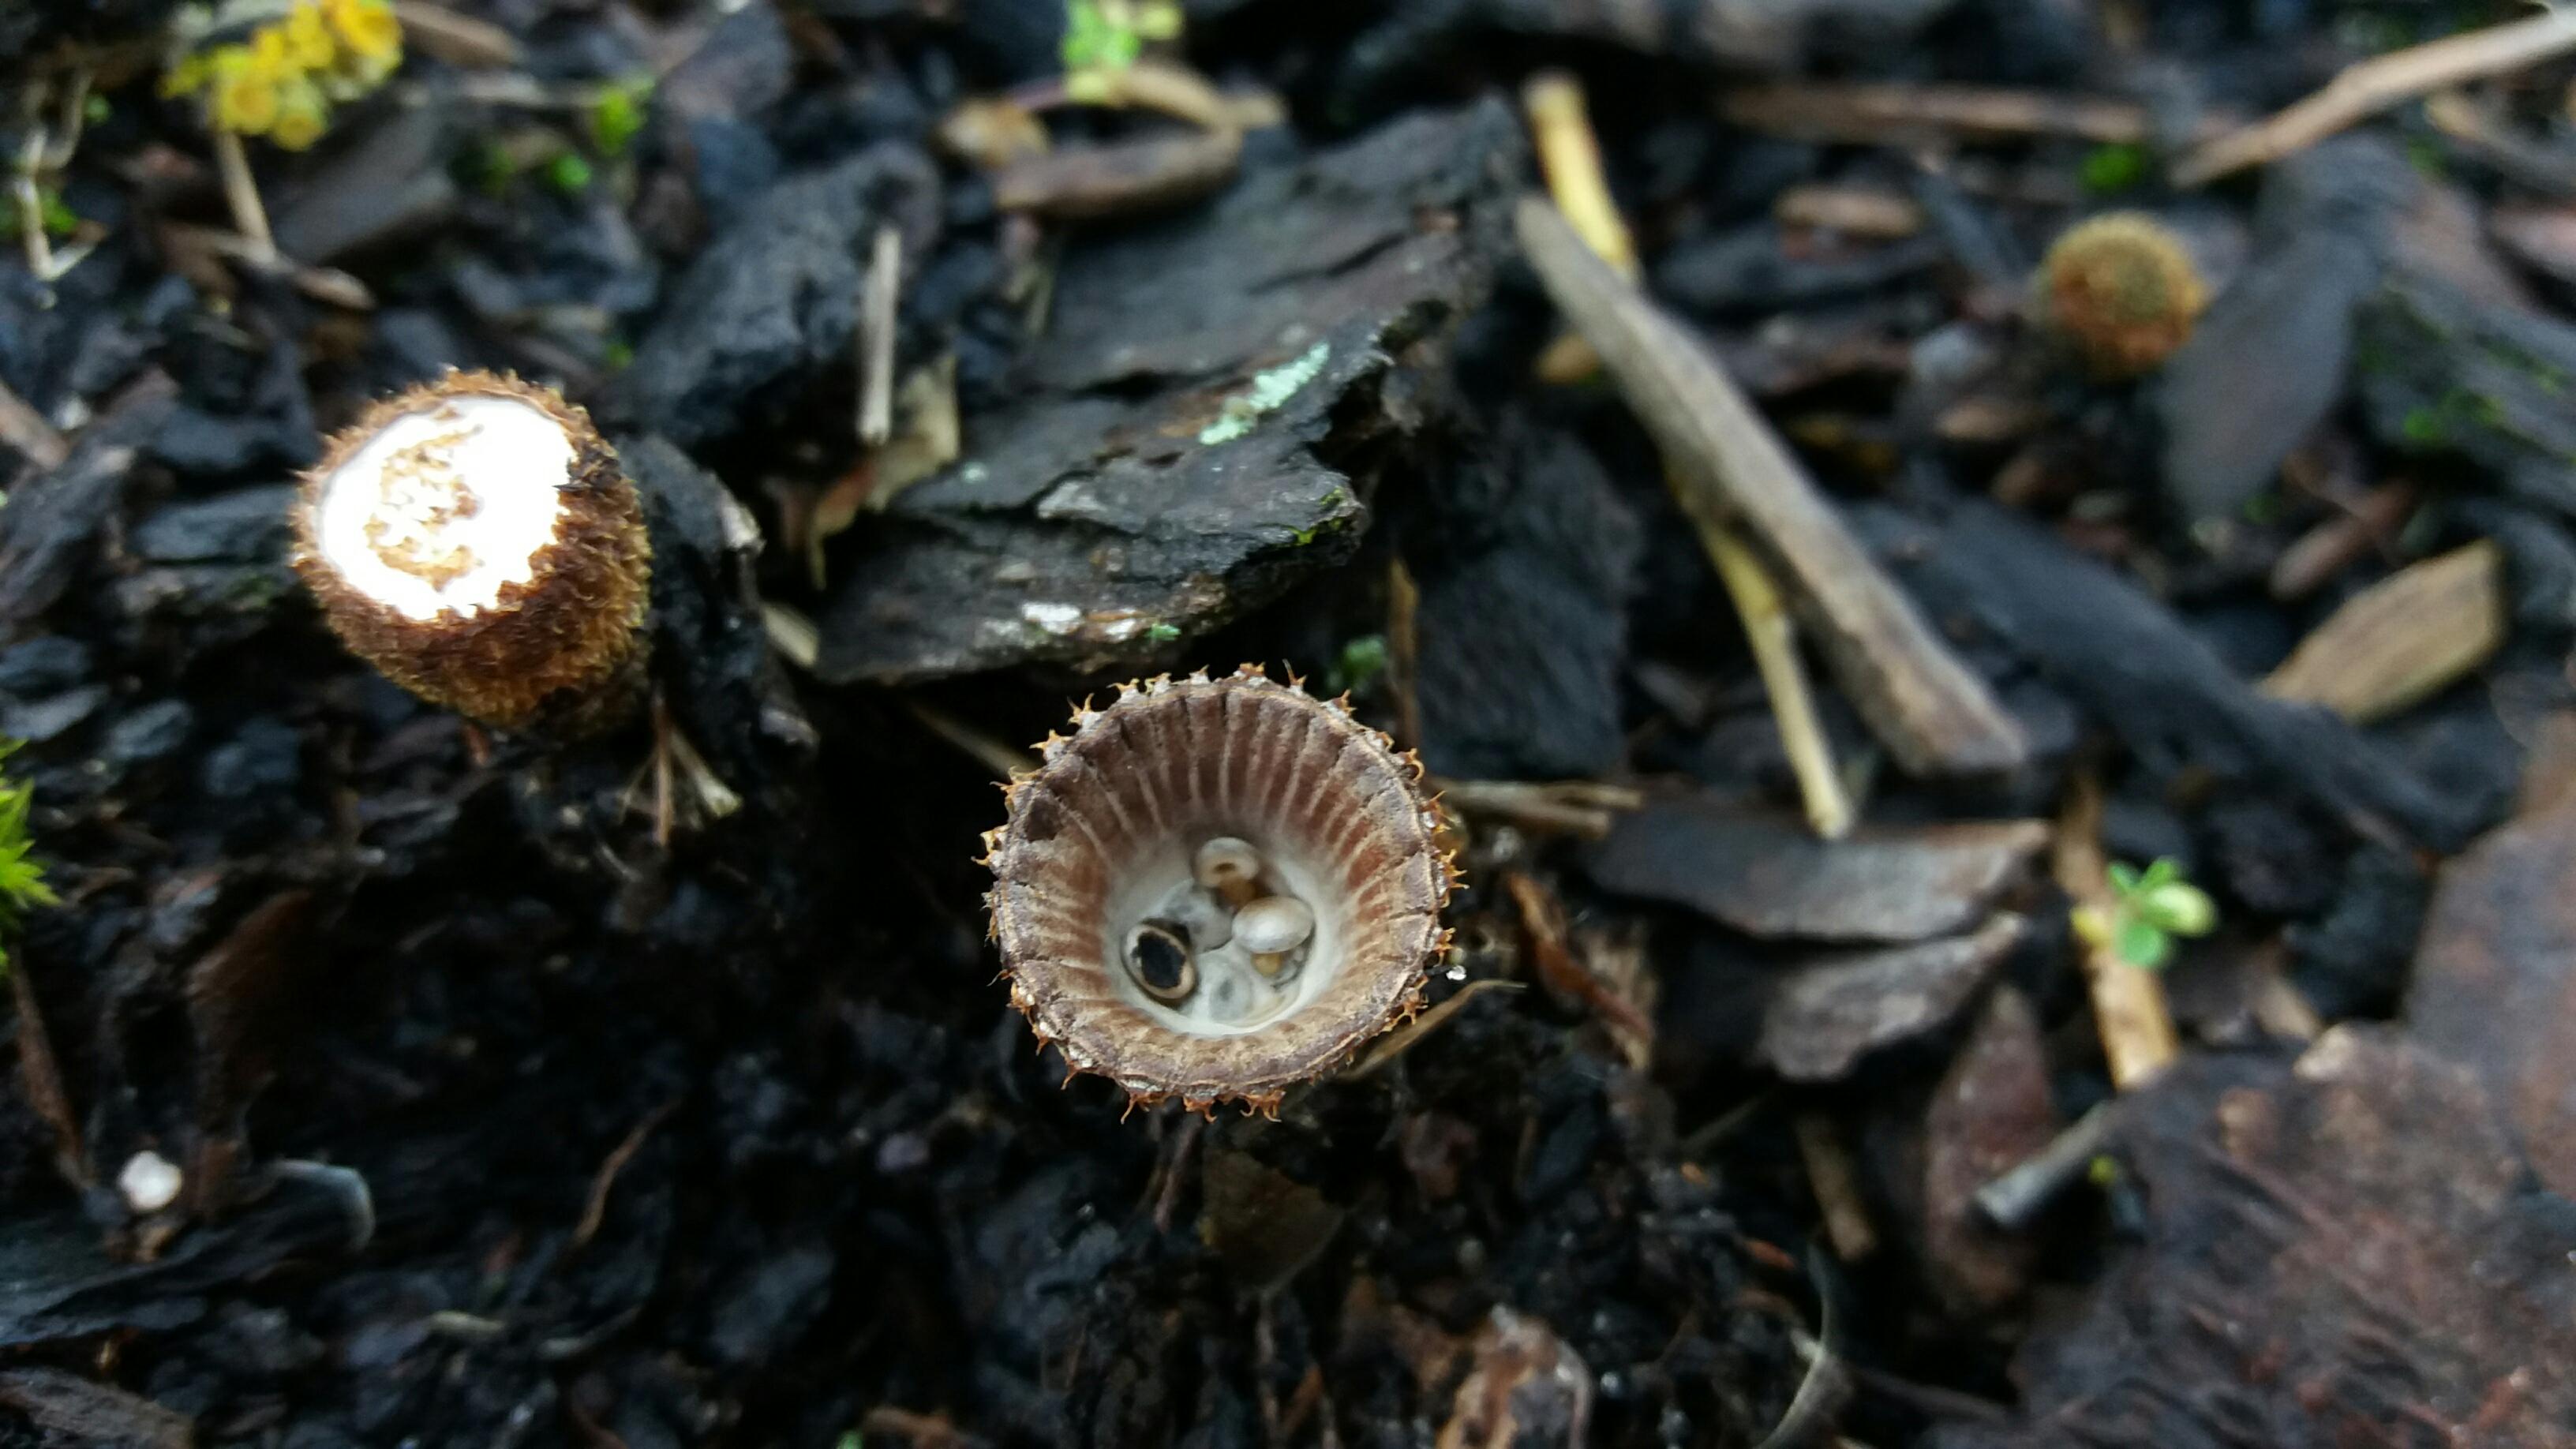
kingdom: Fungi
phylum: Basidiomycota
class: Agaricomycetes
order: Agaricales
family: Agaricaceae
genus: Cyathus
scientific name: Cyathus striatus
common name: stribet redesvamp
